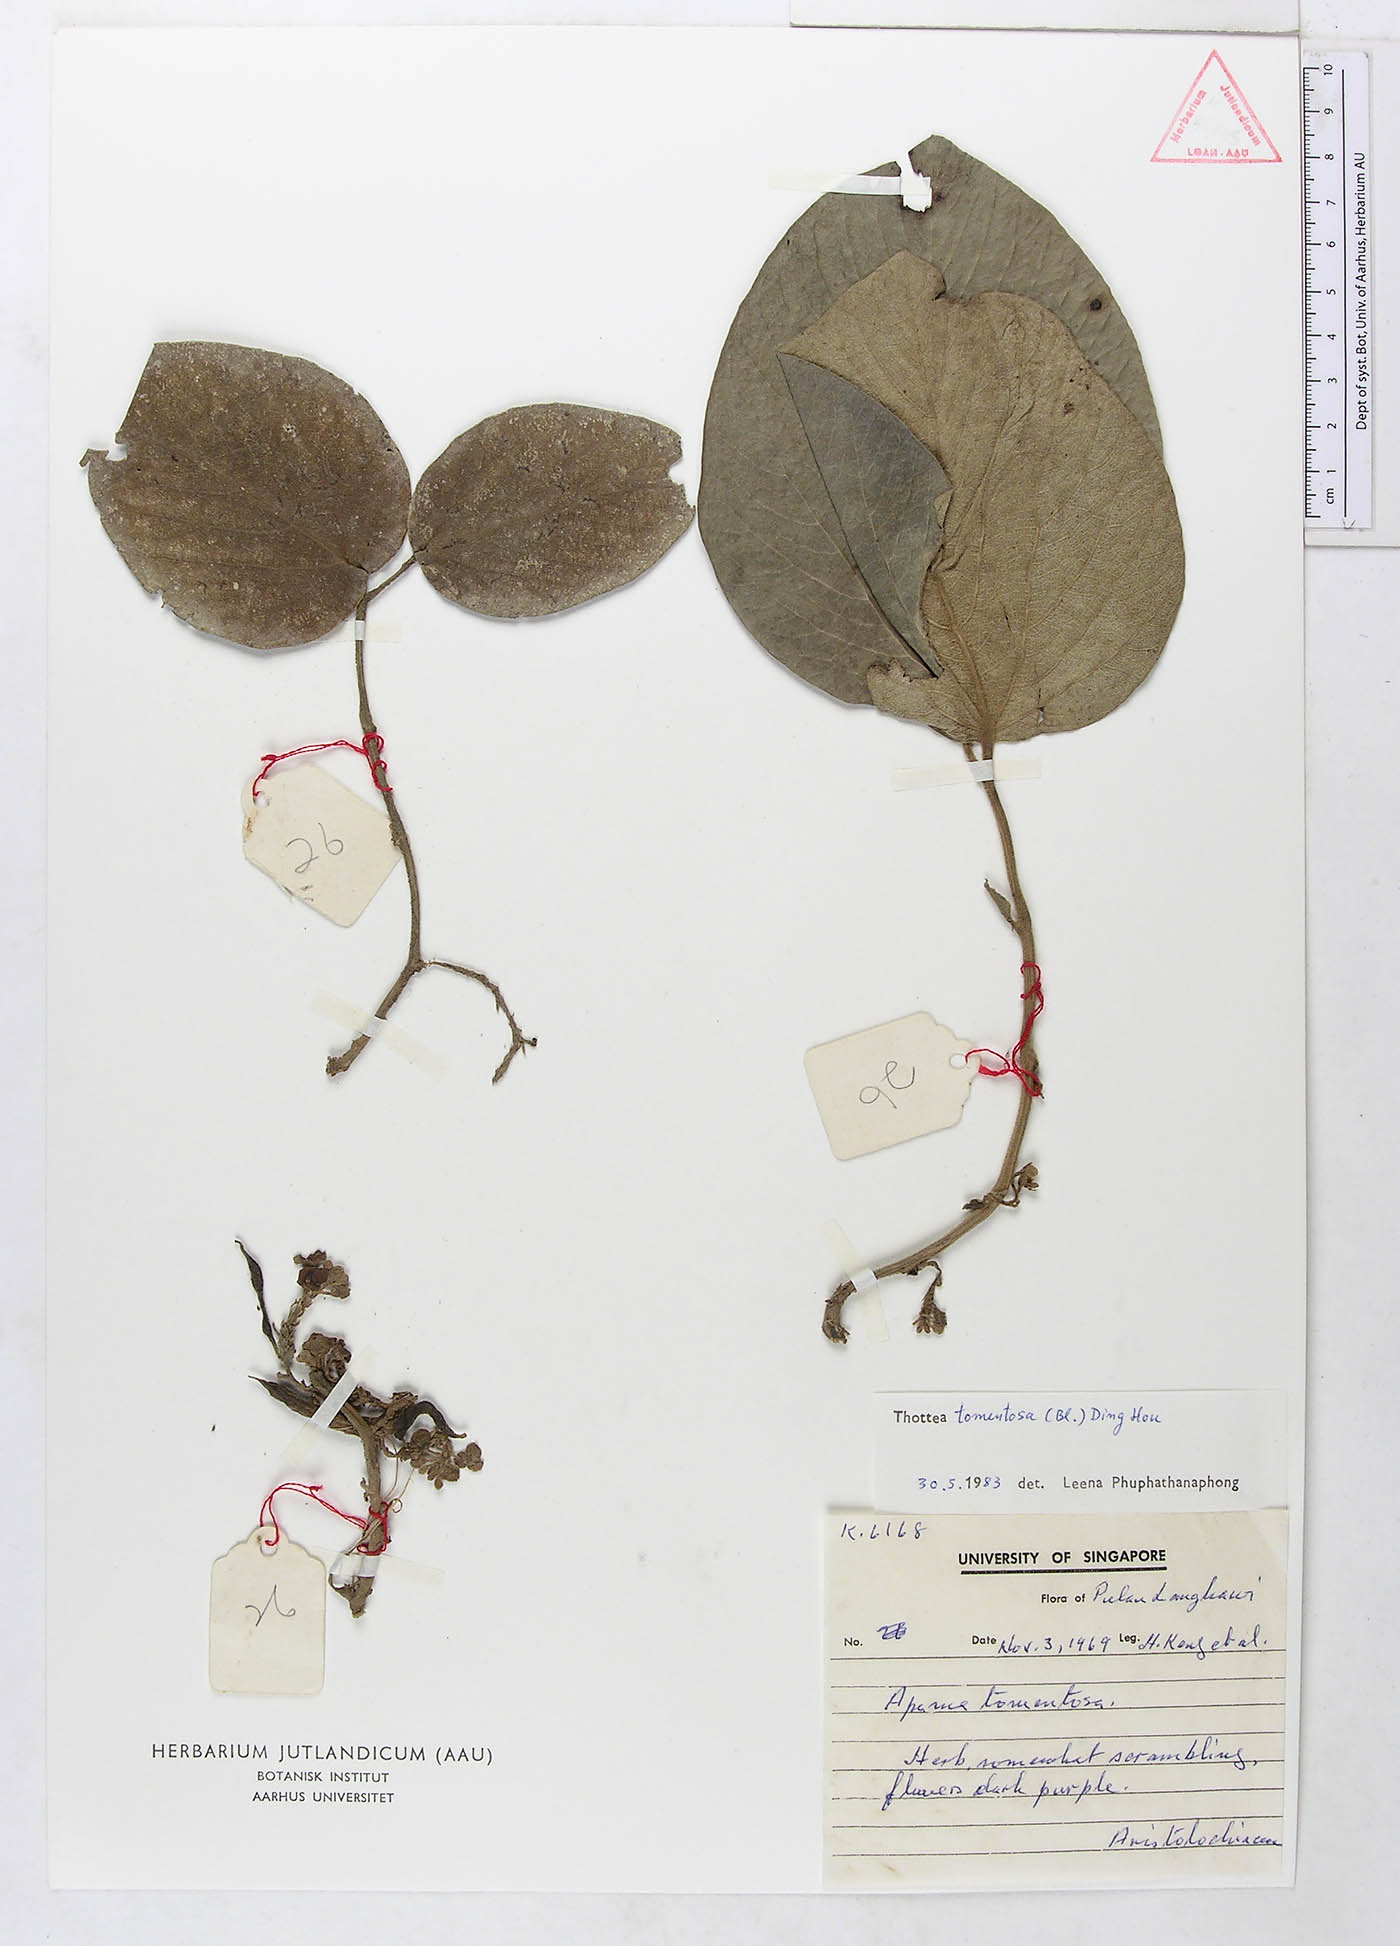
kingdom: Plantae
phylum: Tracheophyta
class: Magnoliopsida
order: Piperales
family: Aristolochiaceae
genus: Thottea
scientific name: Thottea tomentosa
